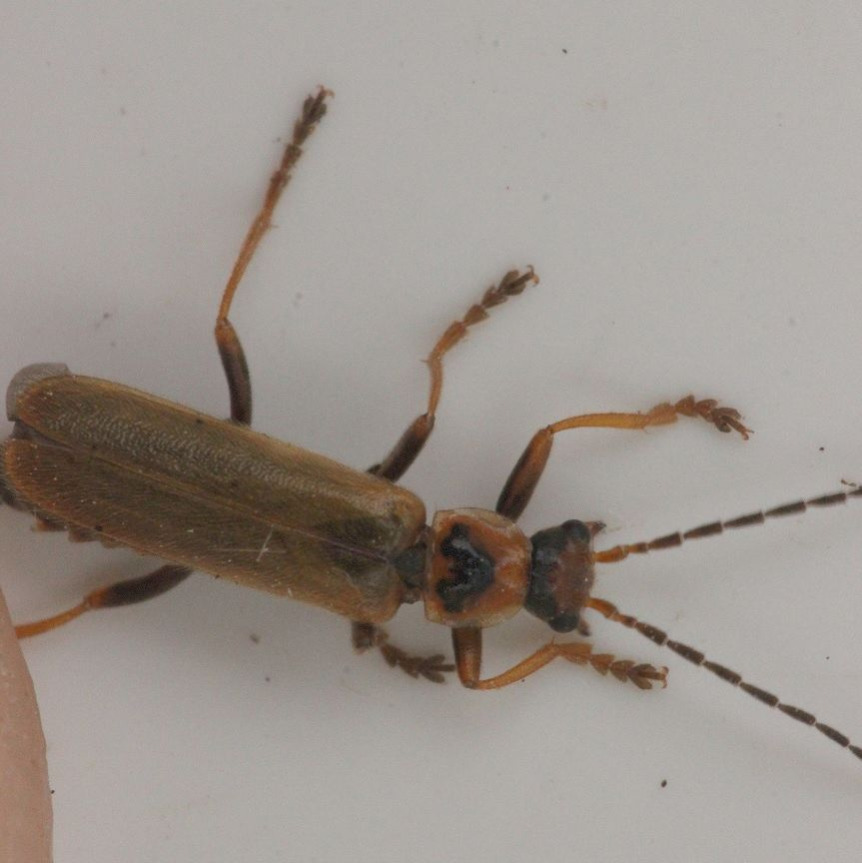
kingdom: Animalia
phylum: Arthropoda
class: Insecta
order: Coleoptera
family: Cantharidae
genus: Cantharis
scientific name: Cantharis figurata
